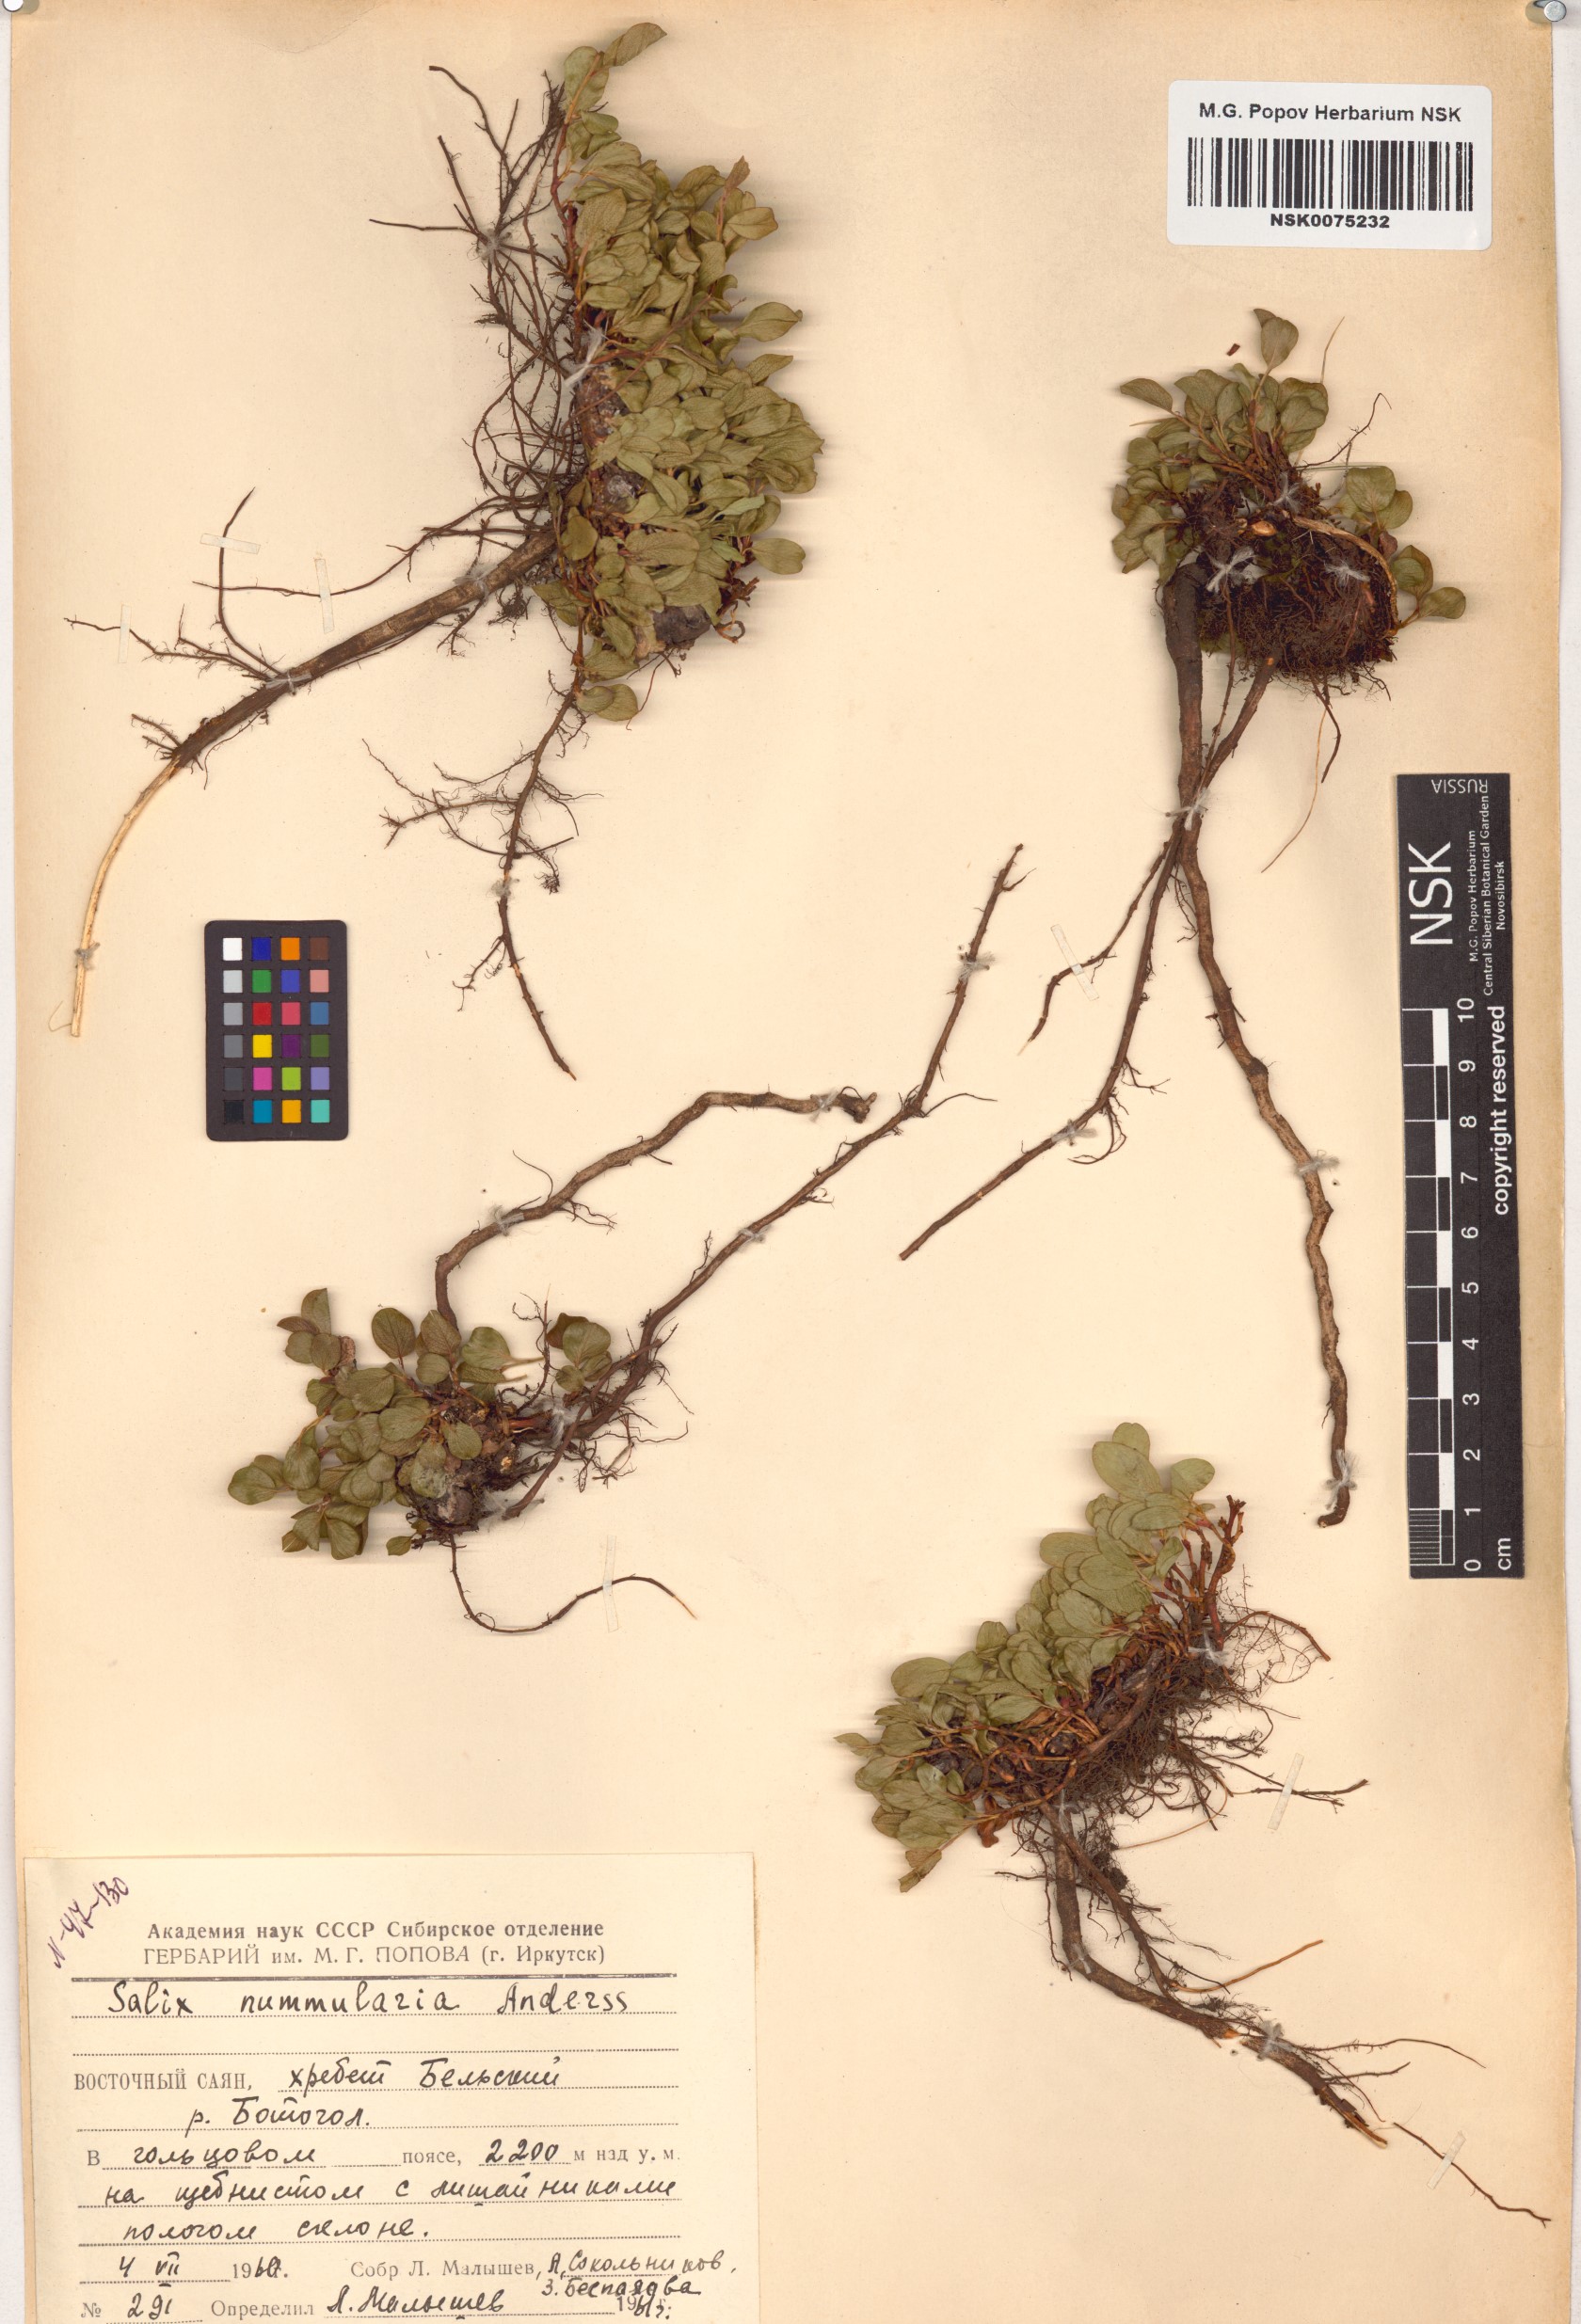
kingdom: Plantae
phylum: Tracheophyta
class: Magnoliopsida
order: Malpighiales
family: Salicaceae
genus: Salix
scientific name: Salix nummularia
